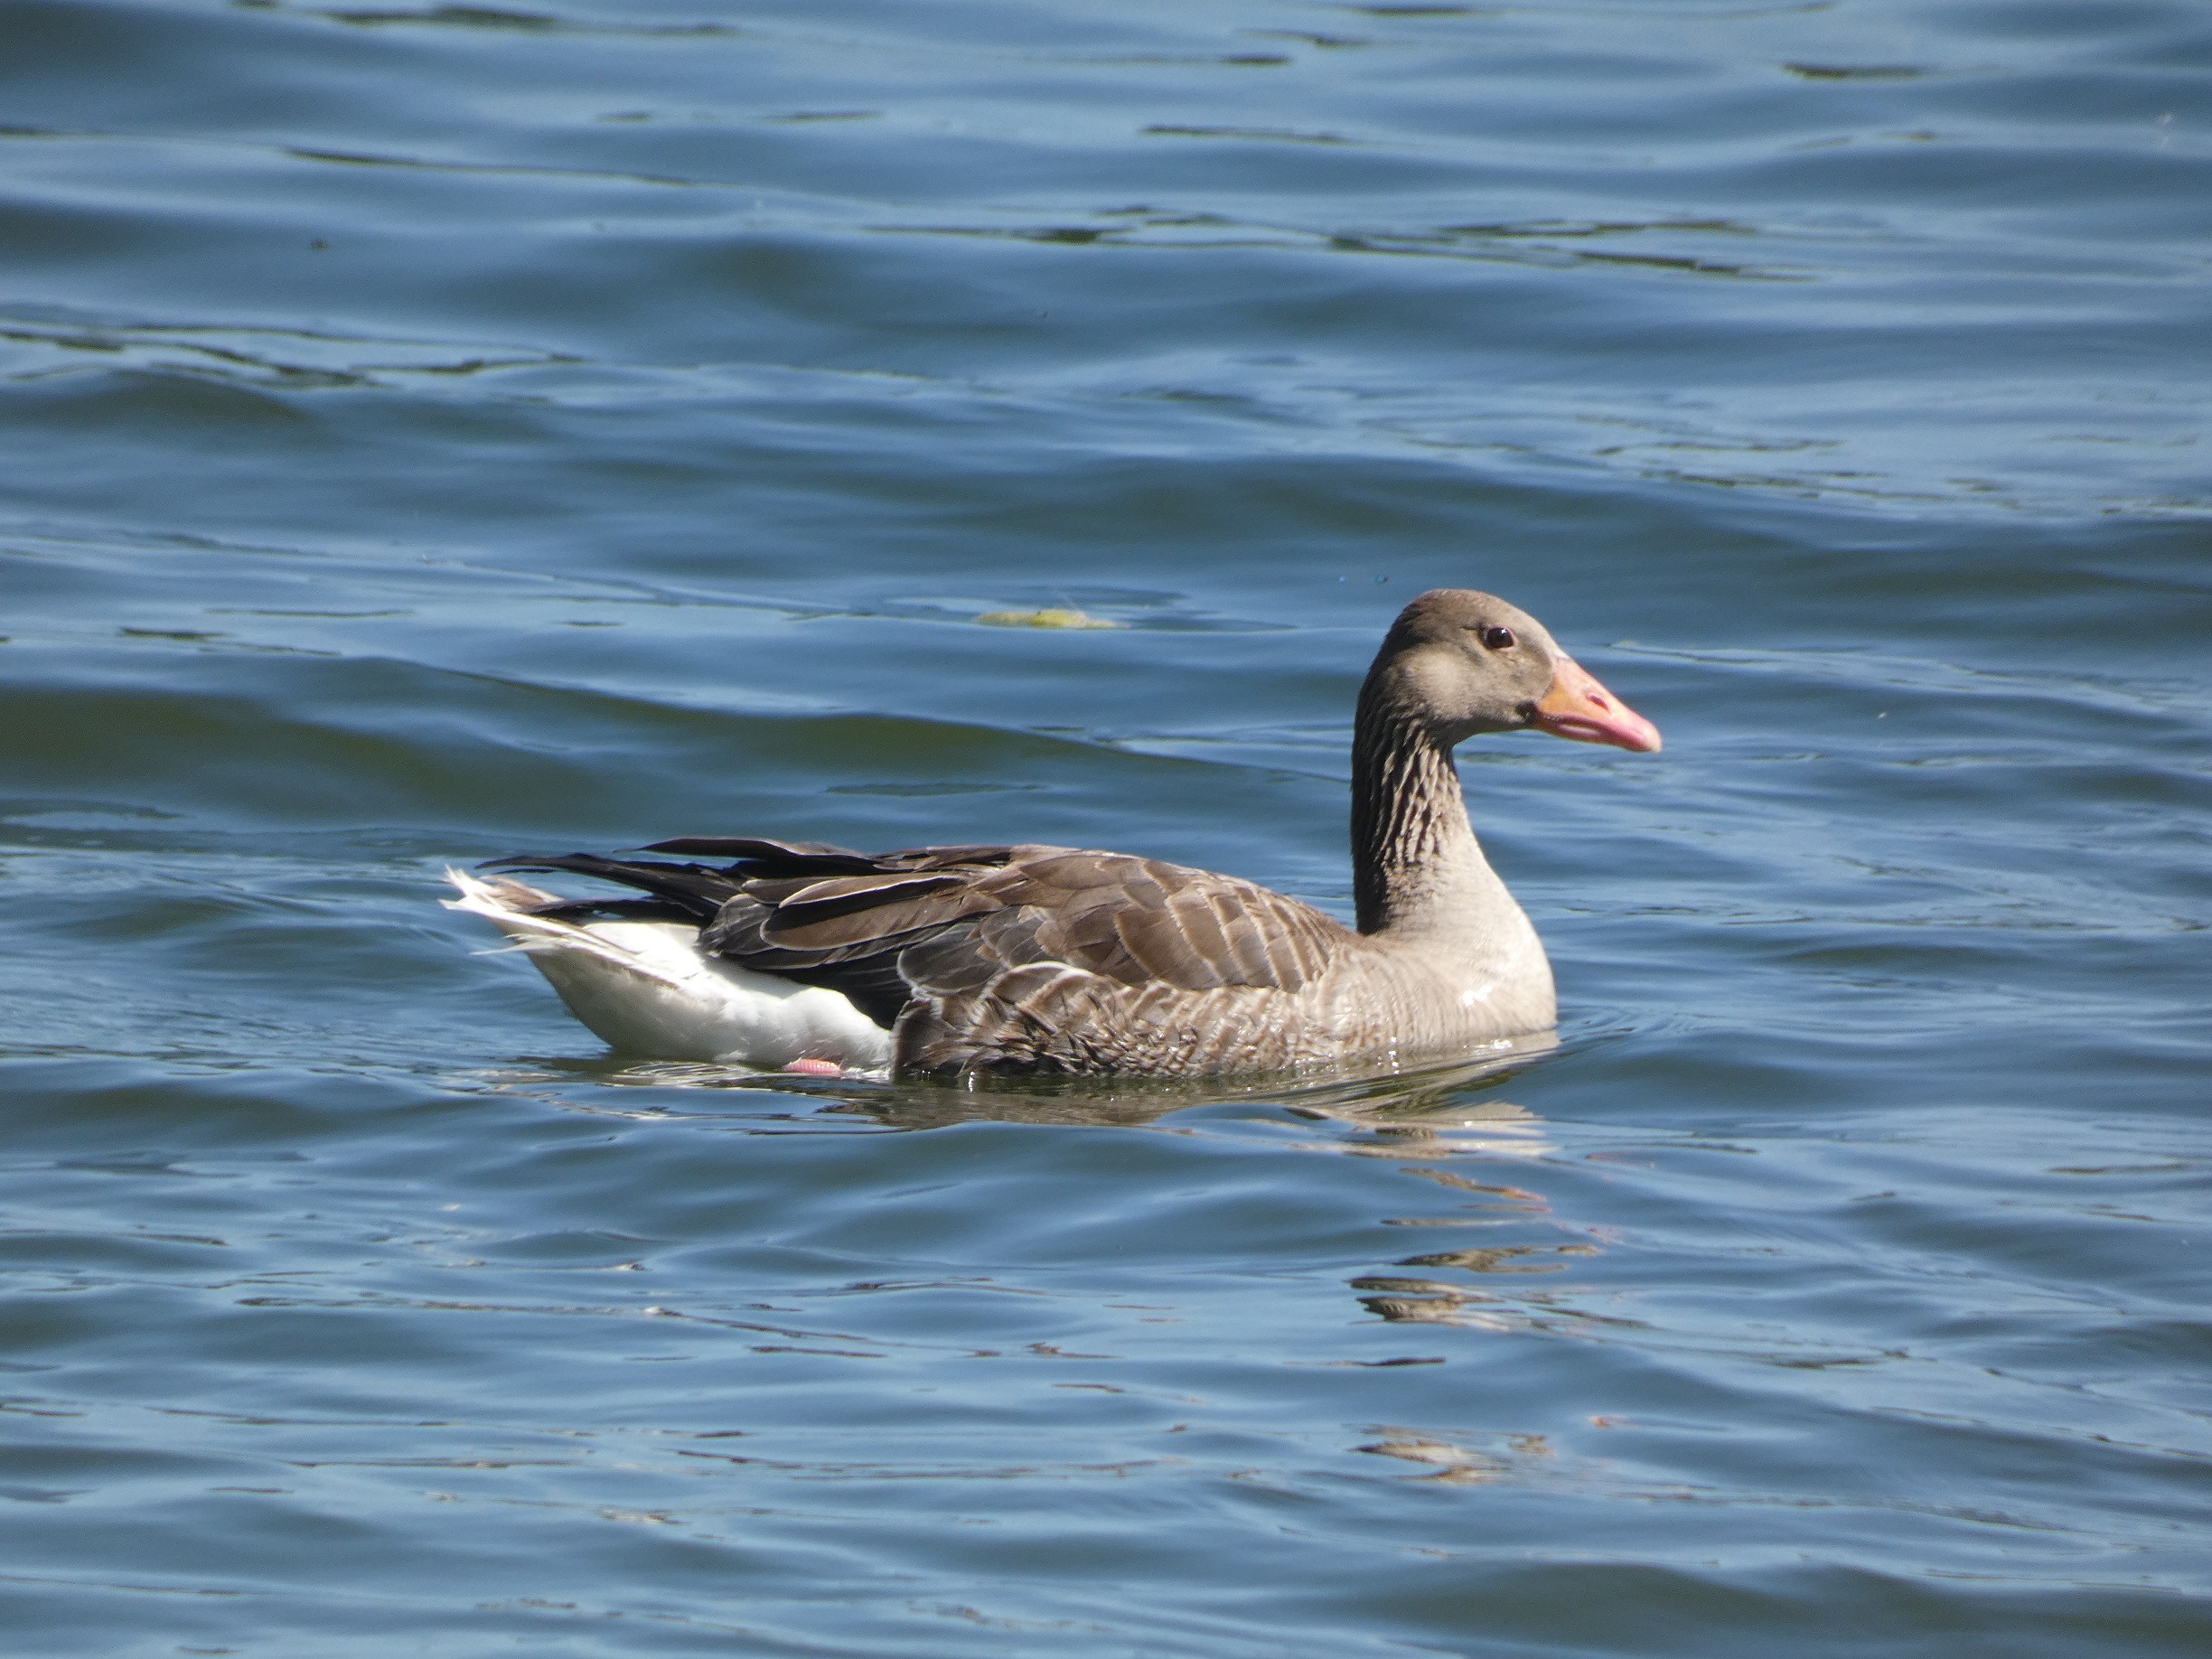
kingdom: Animalia
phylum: Chordata
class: Aves
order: Anseriformes
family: Anatidae
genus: Anser
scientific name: Anser anser
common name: Grågås
